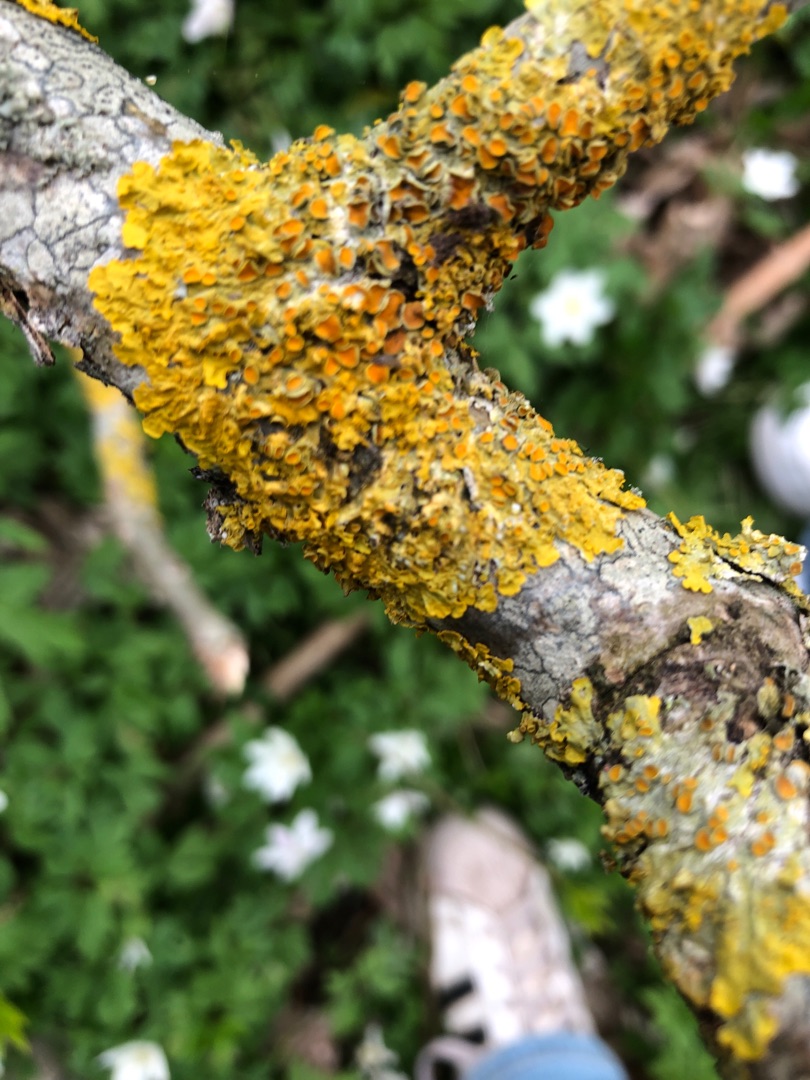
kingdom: Fungi
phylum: Ascomycota
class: Lecanoromycetes
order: Teloschistales
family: Teloschistaceae
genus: Xanthoria
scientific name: Xanthoria parietina
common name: Almindelig væggelav
